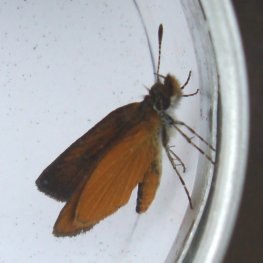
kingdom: Animalia
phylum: Arthropoda
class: Insecta
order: Lepidoptera
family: Hesperiidae
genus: Ancyloxypha
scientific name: Ancyloxypha numitor
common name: Least Skipper
